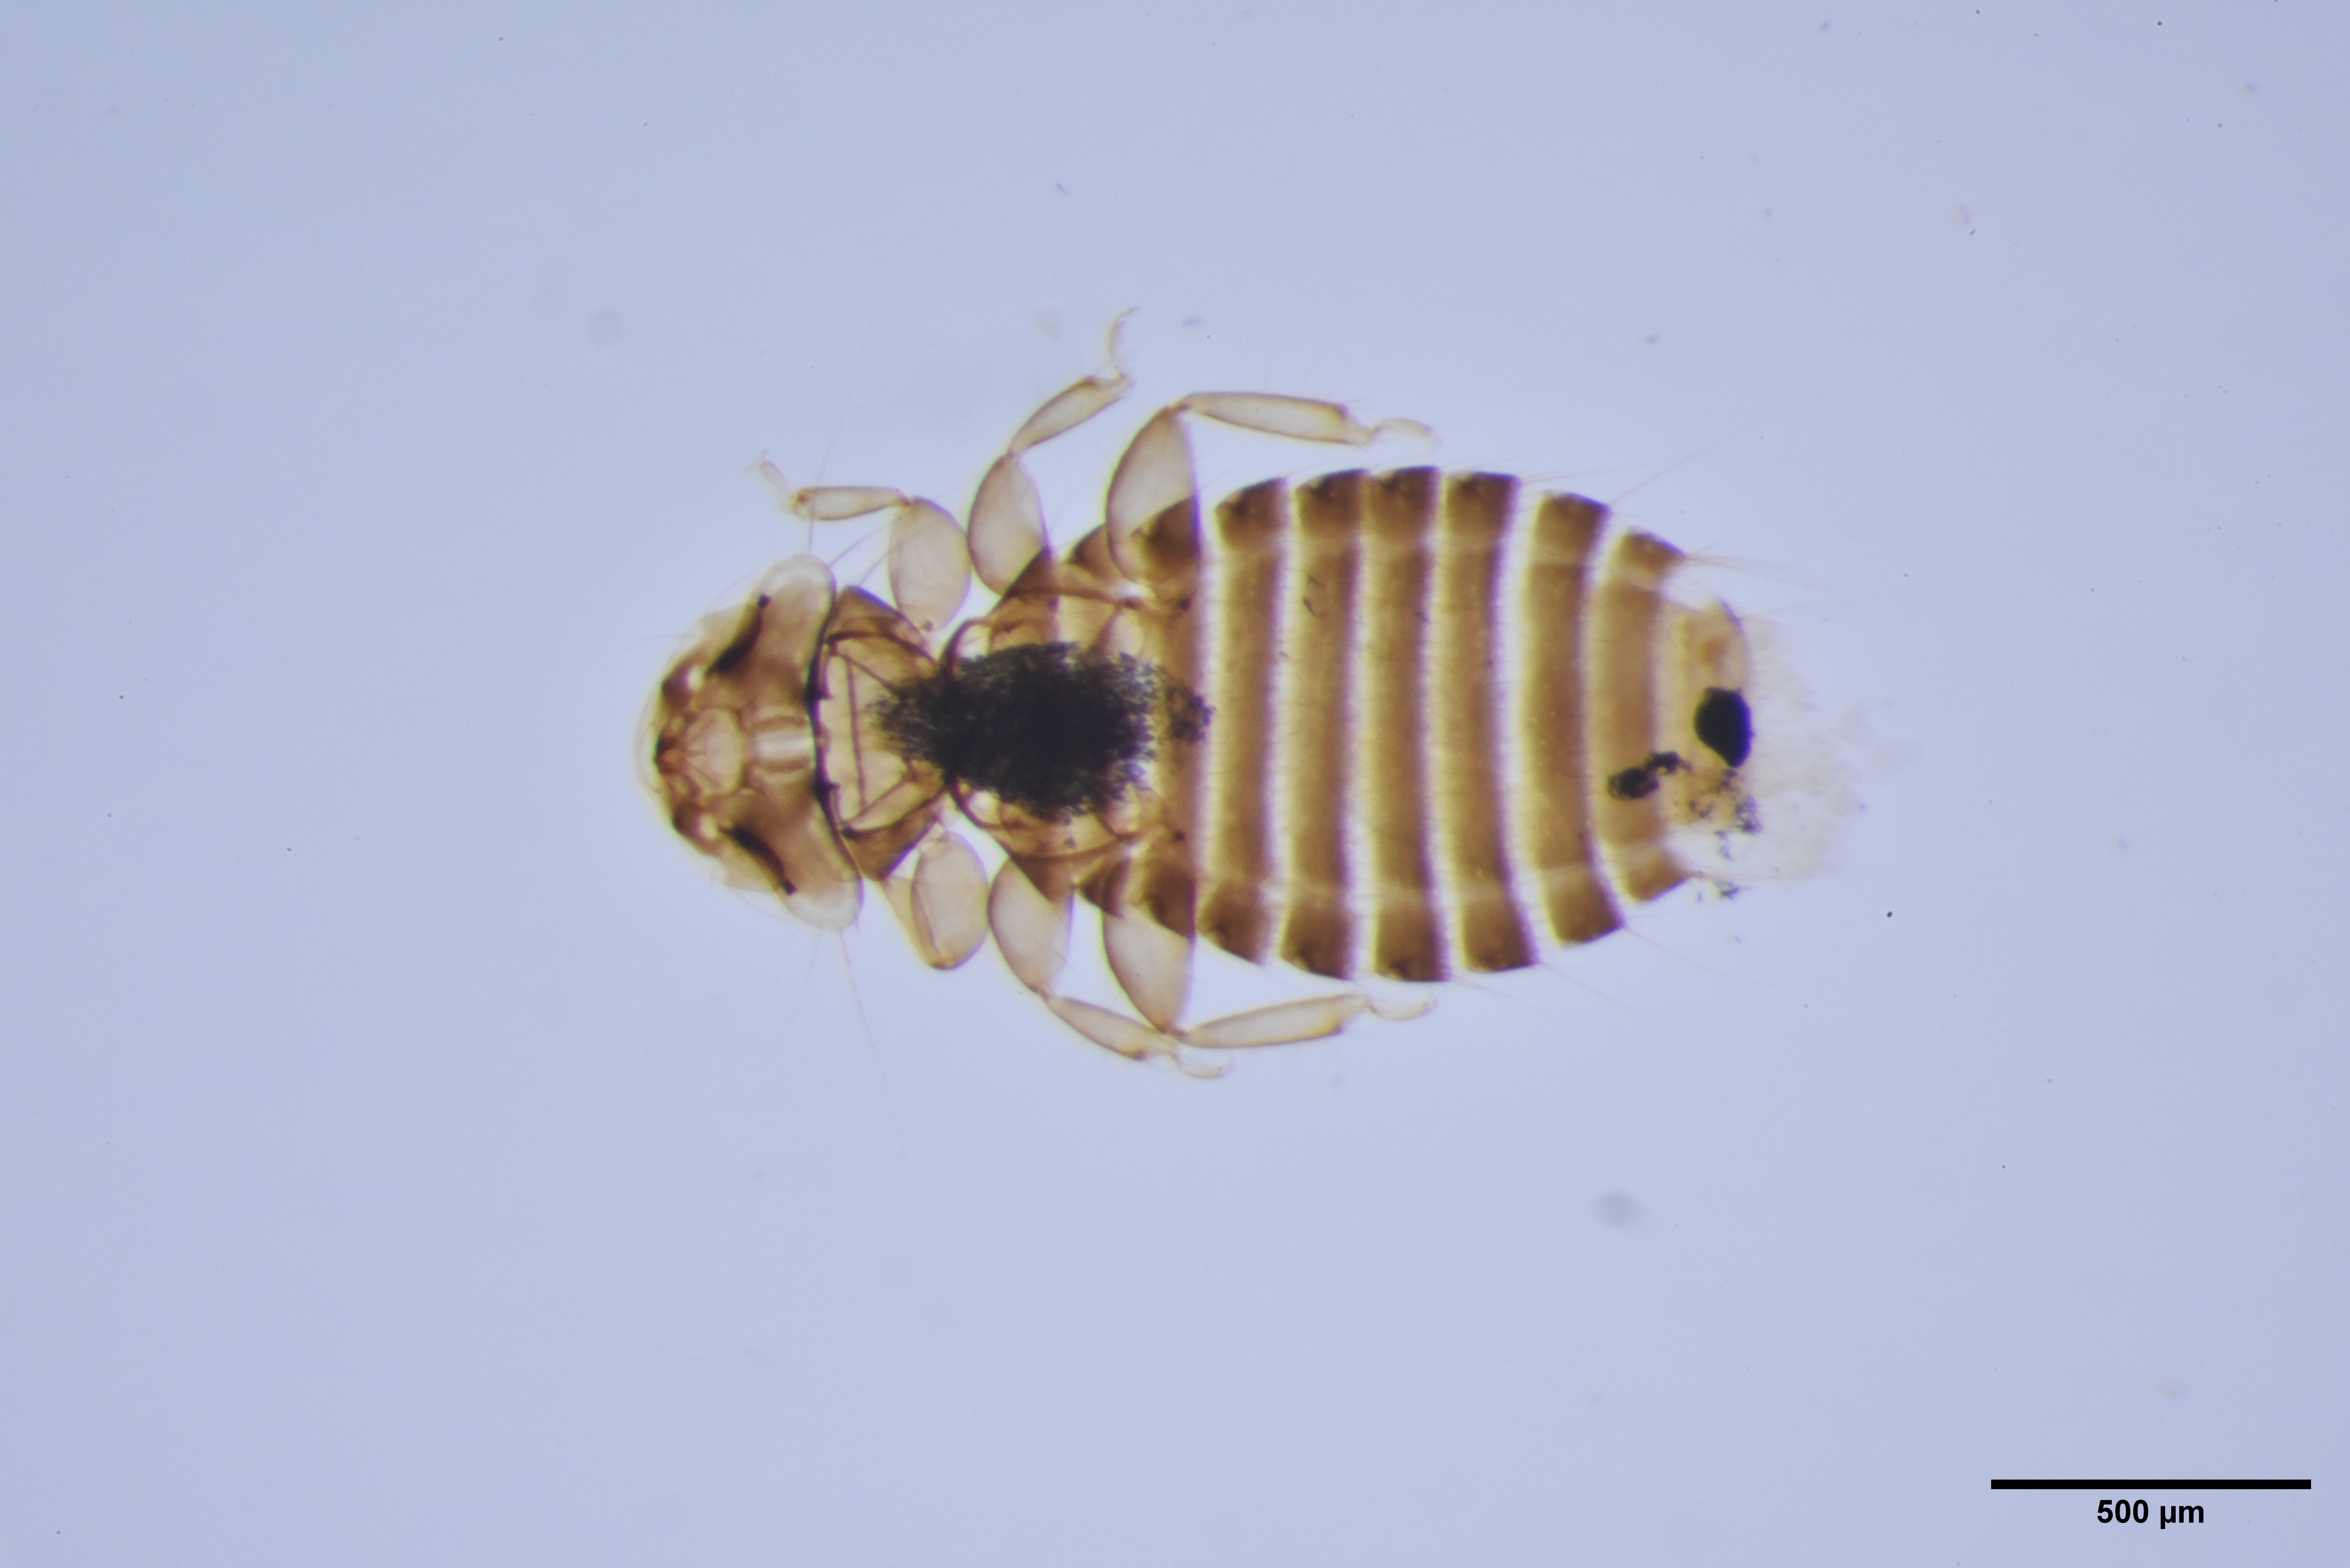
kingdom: Animalia
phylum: Arthropoda
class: Insecta
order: Psocodea
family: Ancistronidae
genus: Austromenopon
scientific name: Austromenopon squatarolae
